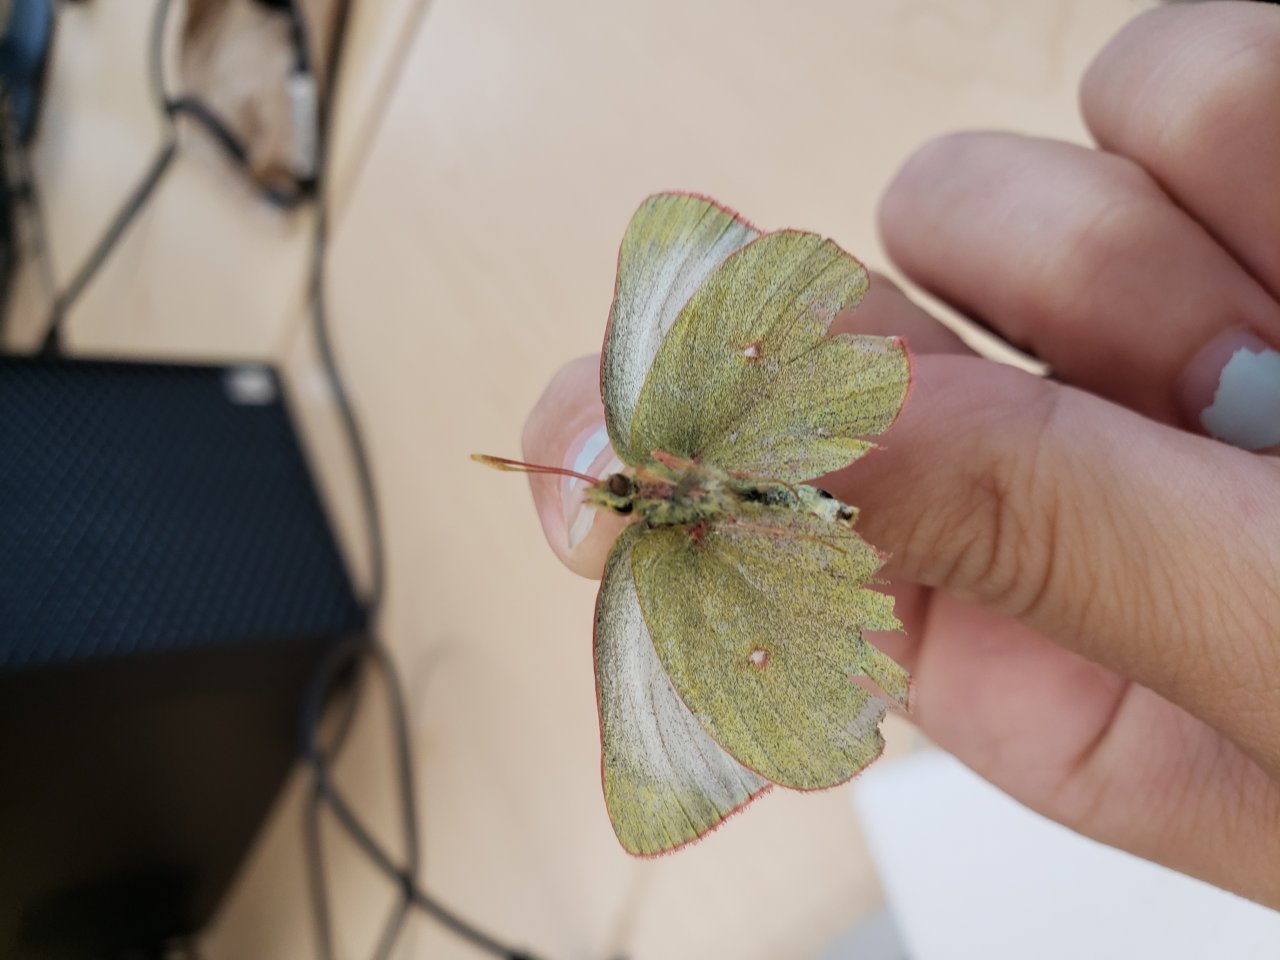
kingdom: Animalia
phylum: Arthropoda
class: Insecta
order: Lepidoptera
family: Pieridae
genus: Colias
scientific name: Colias pelidne
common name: Pelidne Sulphur
